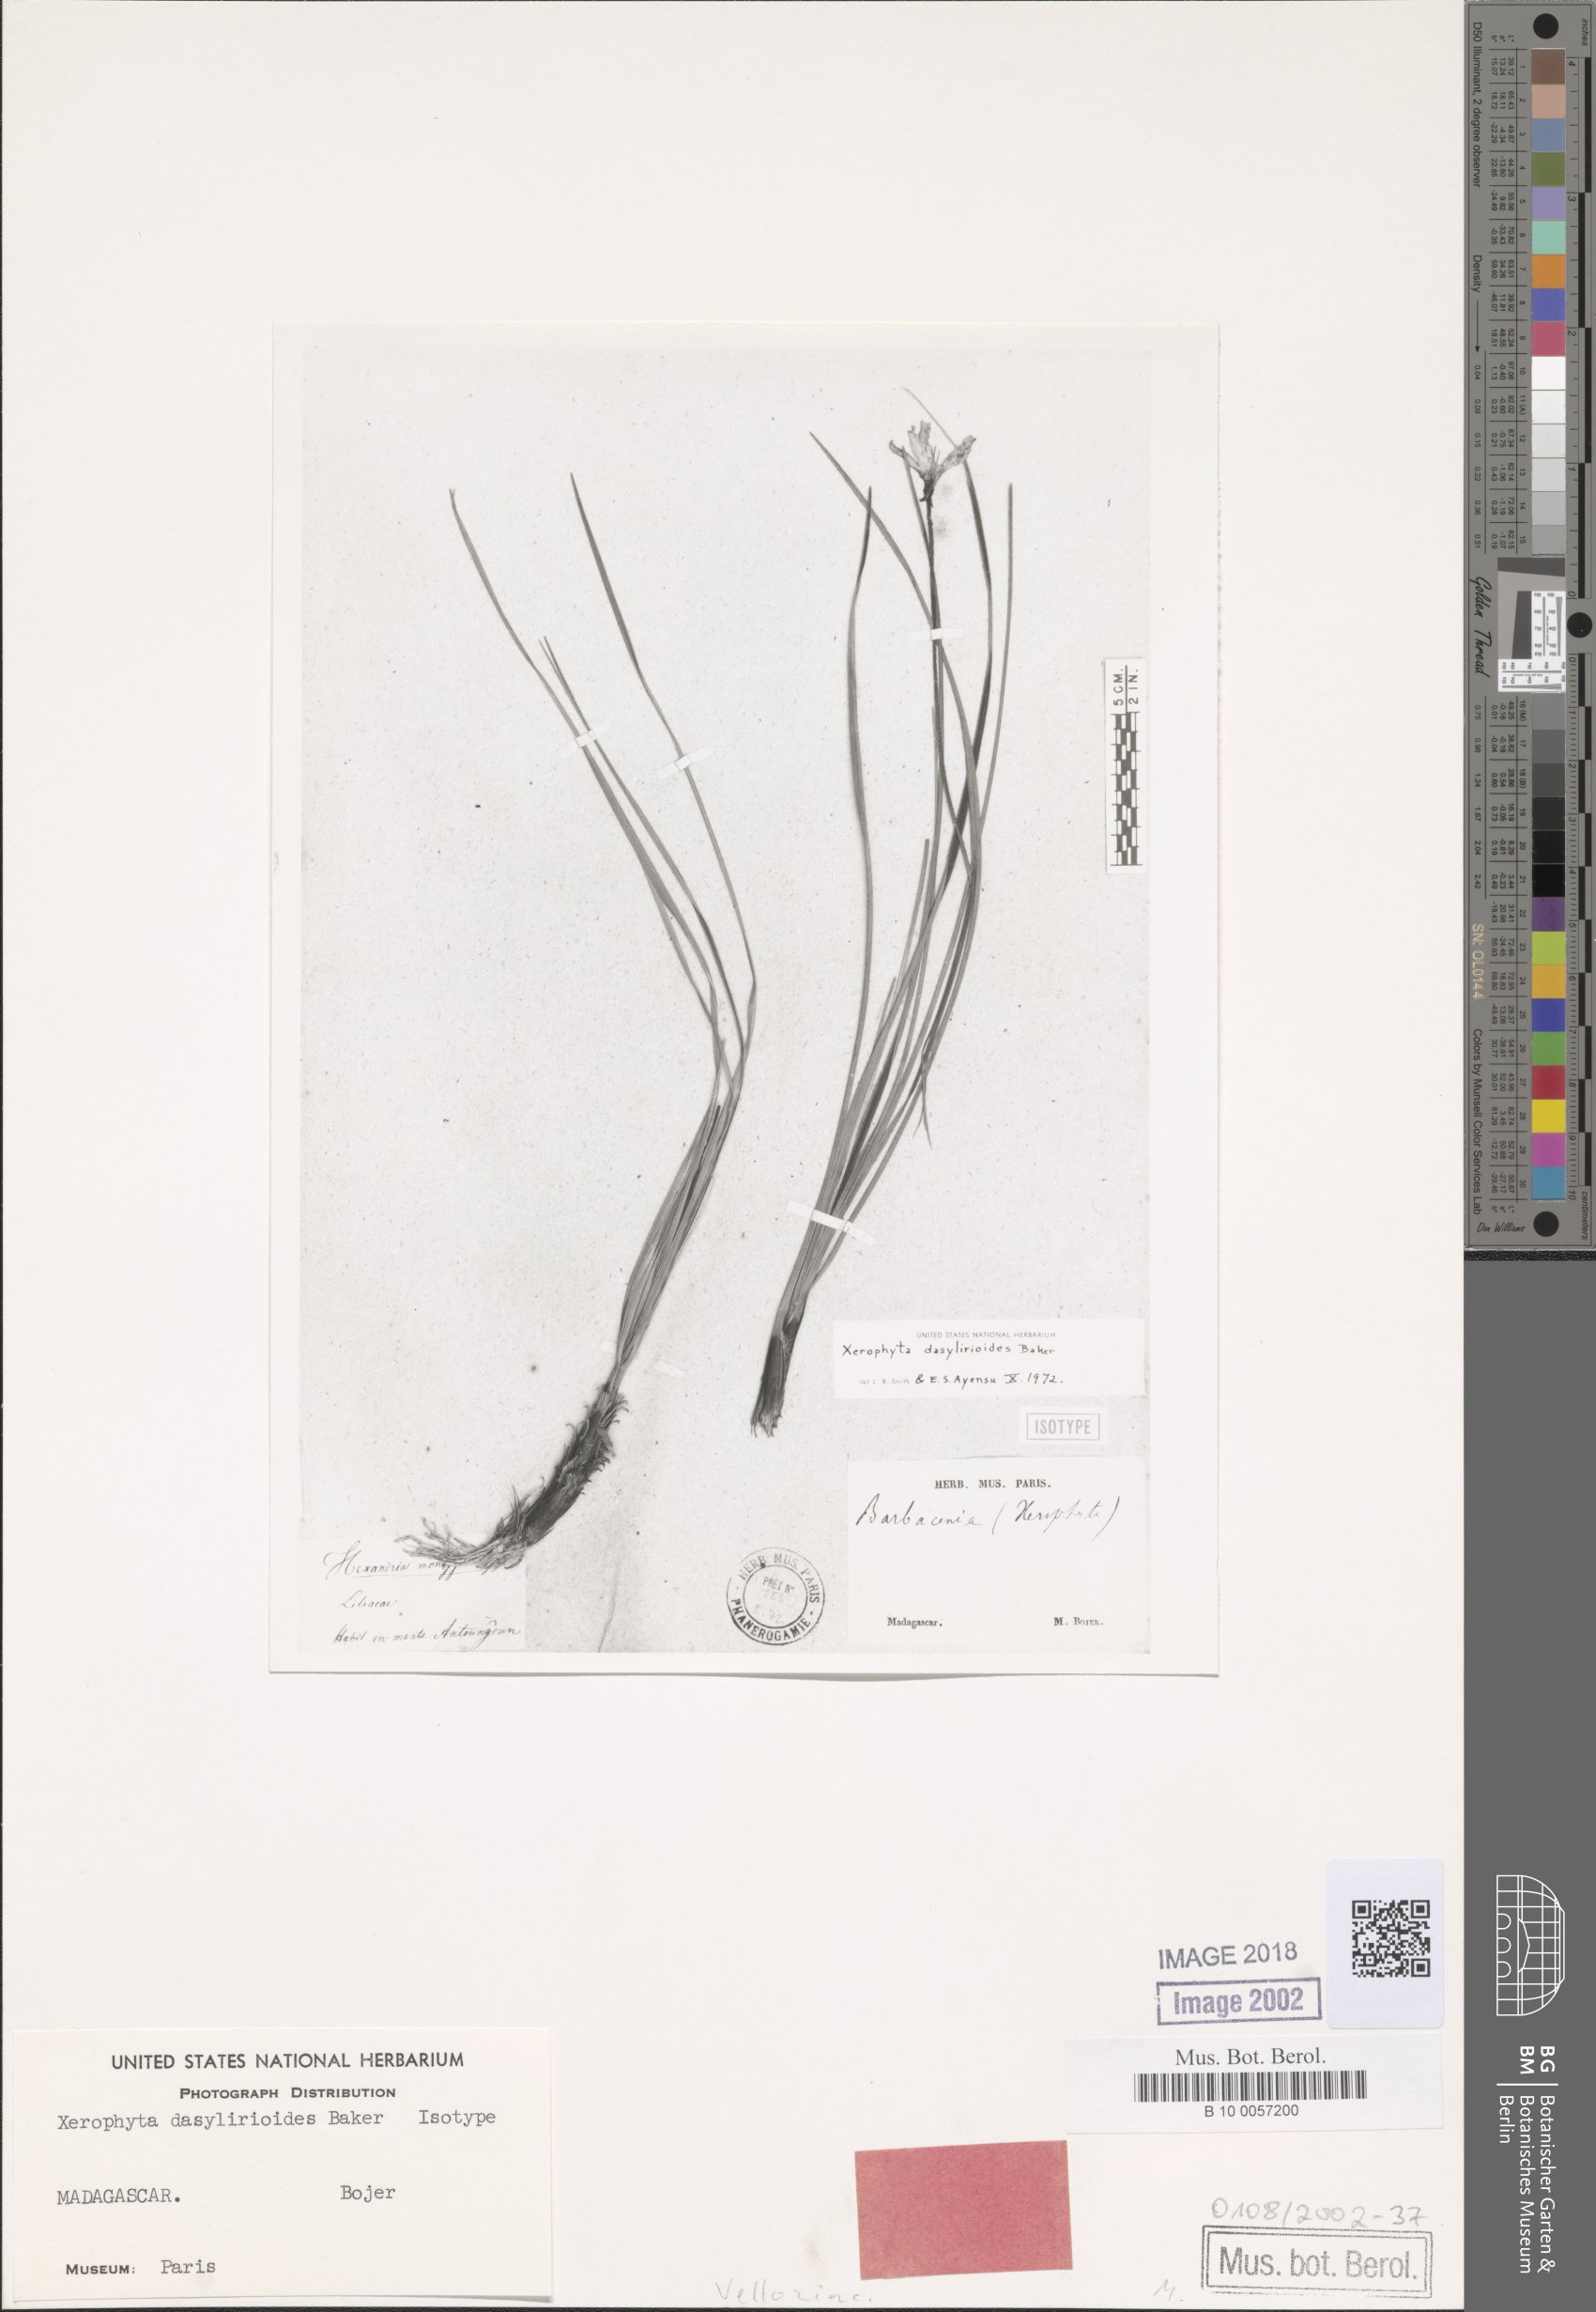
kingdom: Plantae
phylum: Tracheophyta
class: Liliopsida
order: Pandanales
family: Velloziaceae
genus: Xerophyta
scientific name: Xerophyta dasylirioides
